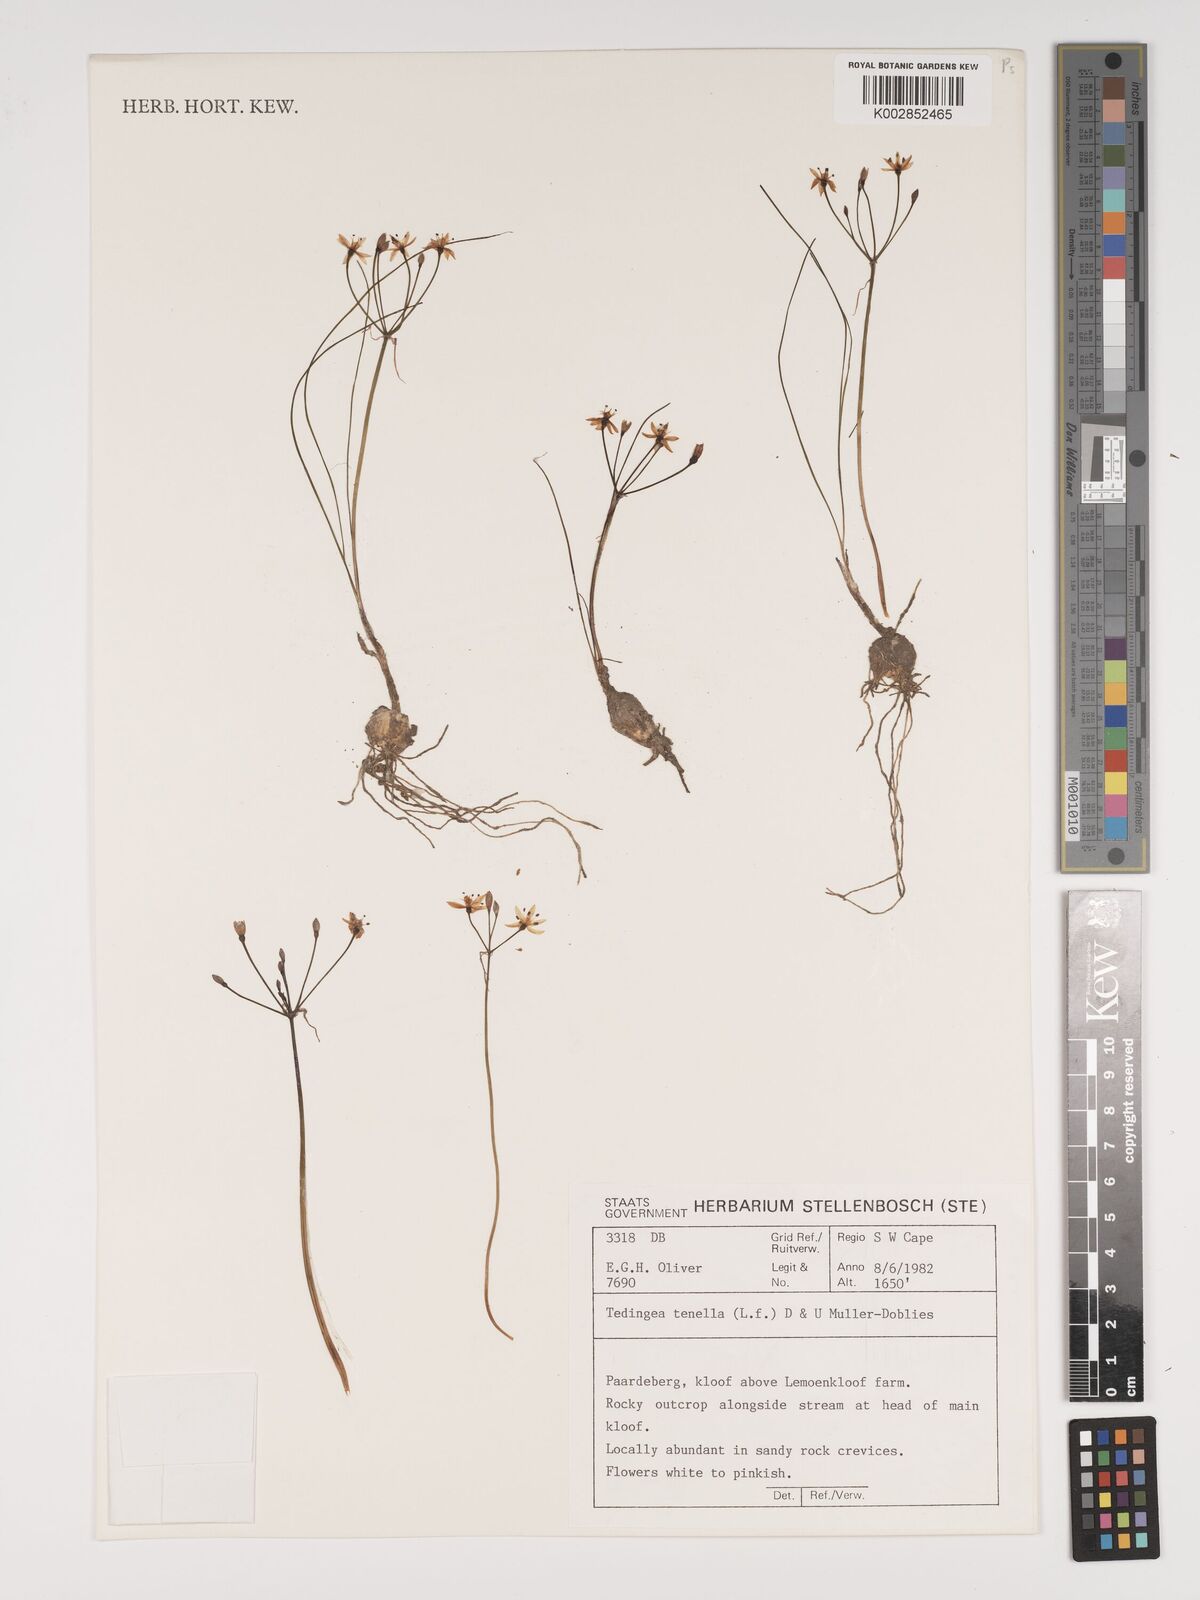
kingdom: Plantae
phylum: Tracheophyta
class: Liliopsida
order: Asparagales
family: Amaryllidaceae
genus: Strumaria
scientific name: Strumaria tenella
